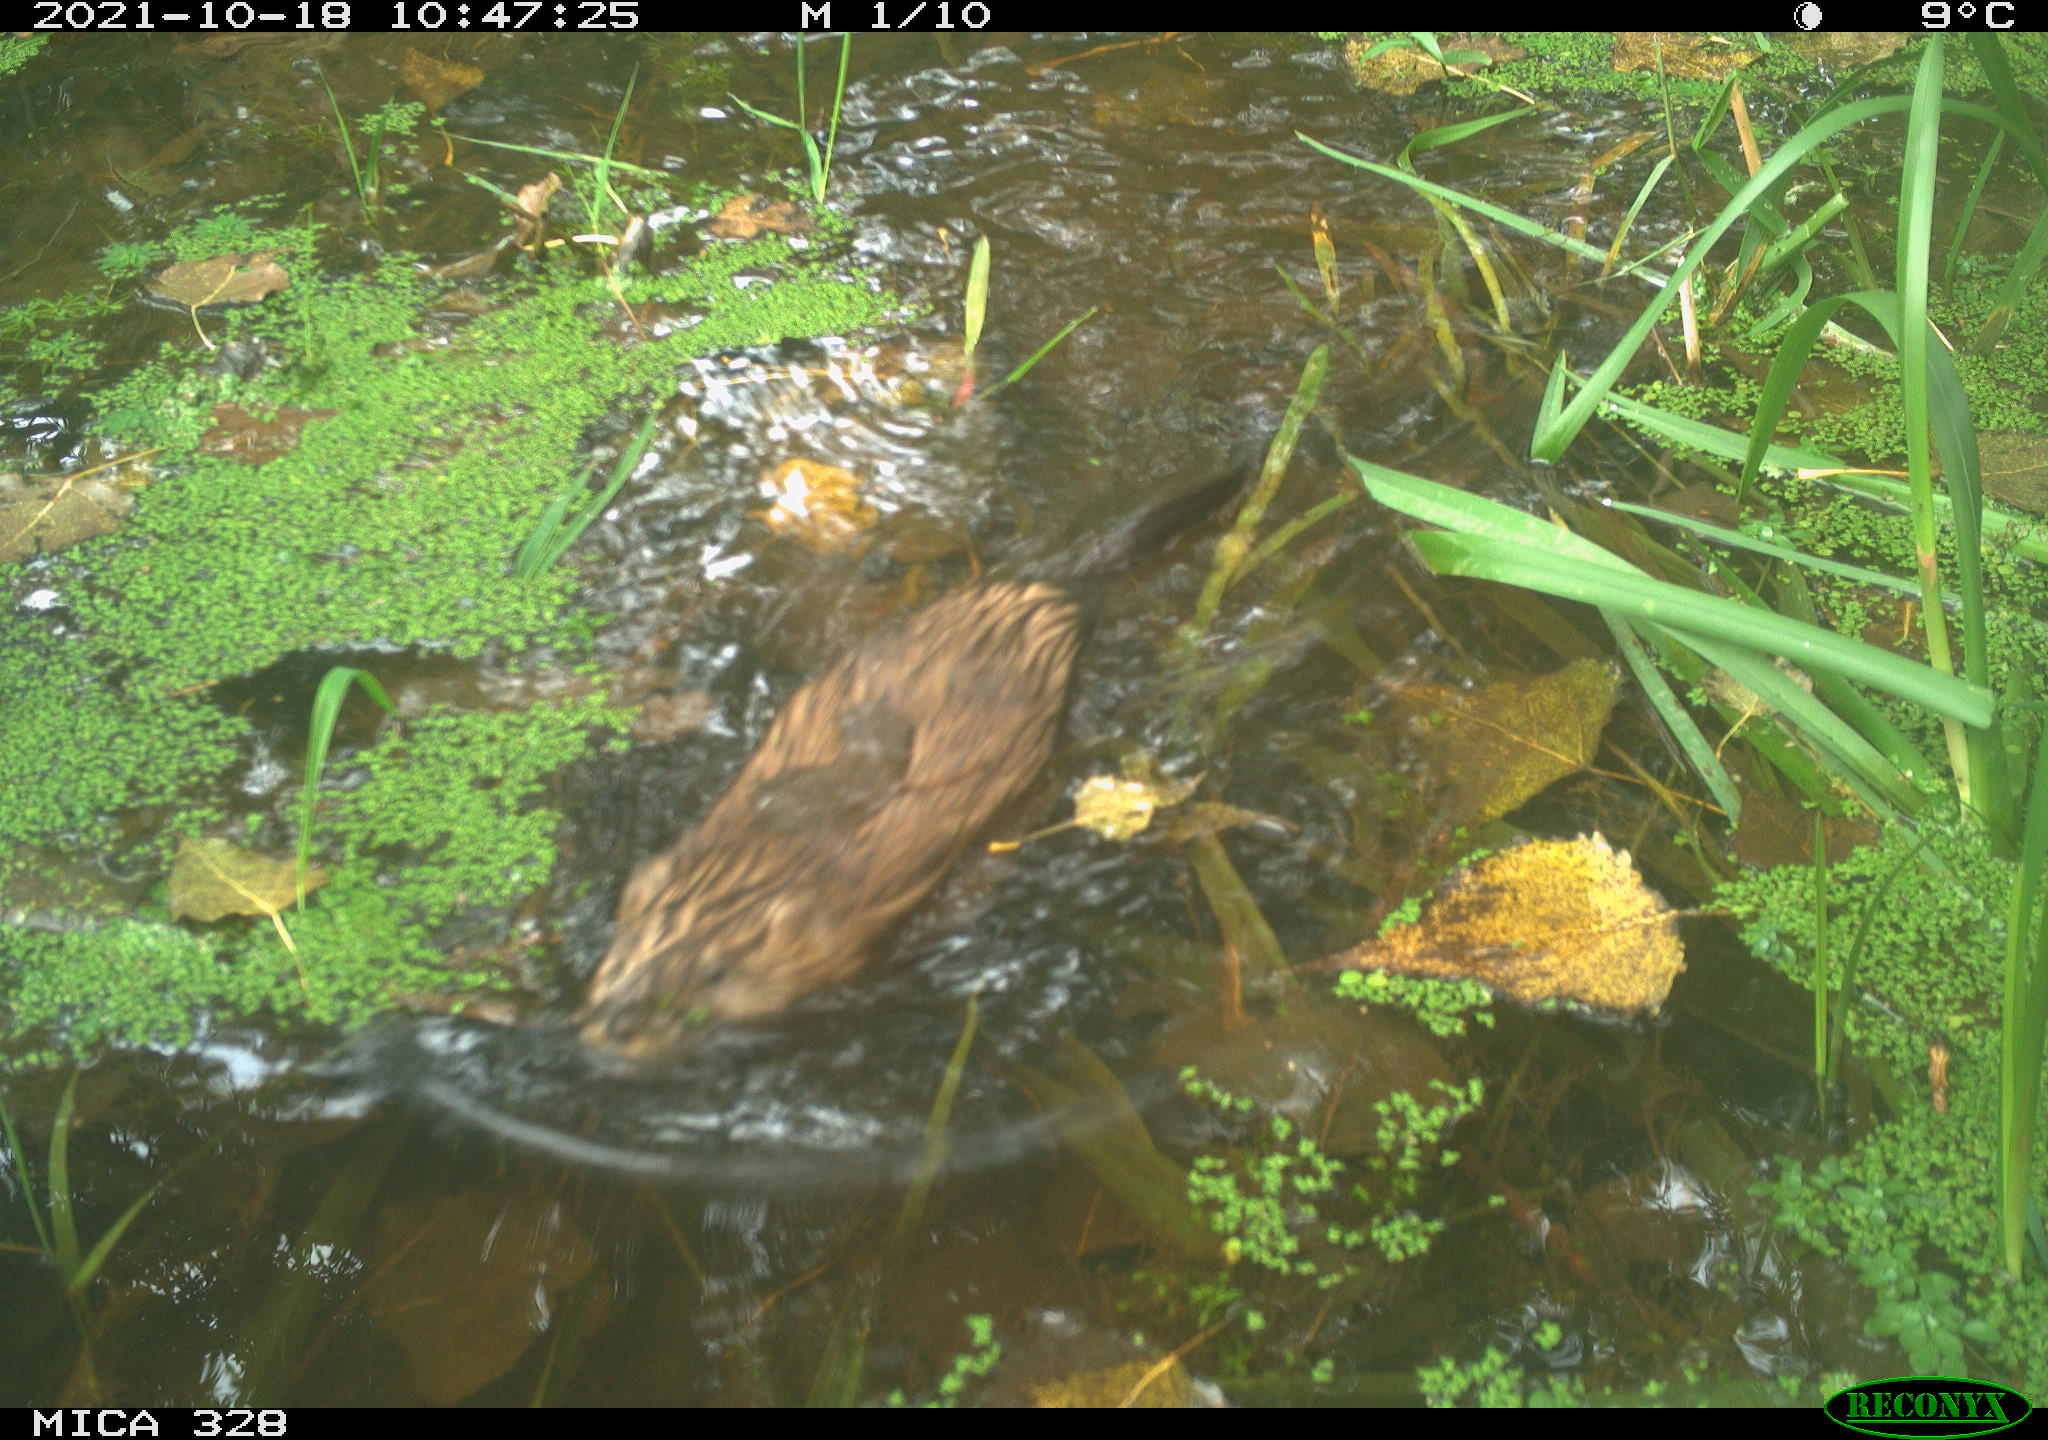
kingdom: Animalia
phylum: Chordata
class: Mammalia
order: Rodentia
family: Cricetidae
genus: Ondatra
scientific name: Ondatra zibethicus
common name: Muskrat
